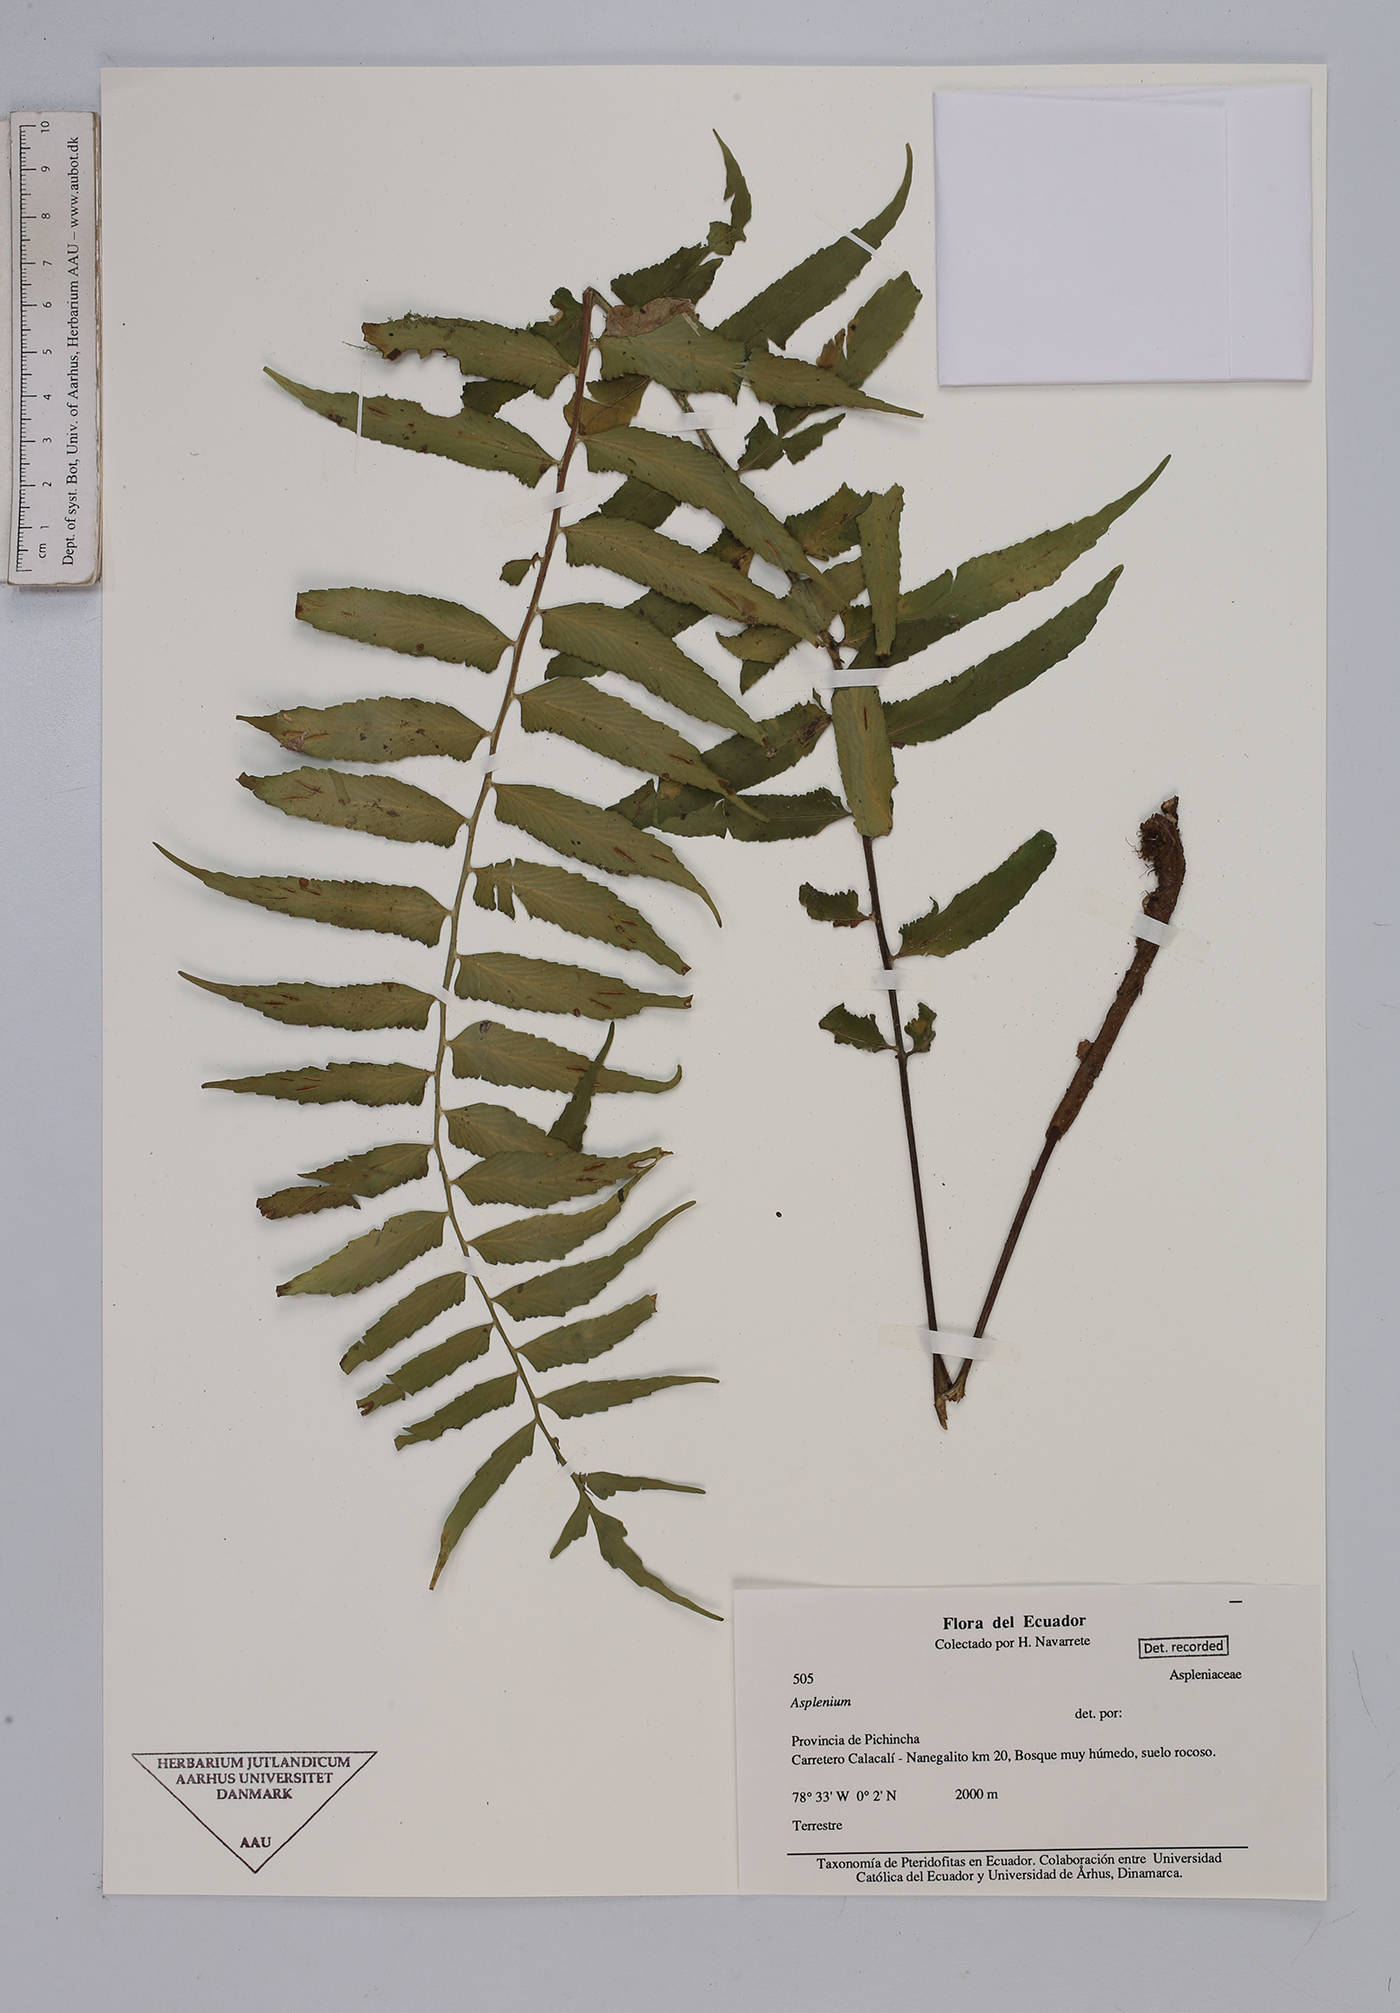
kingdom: Plantae
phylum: Tracheophyta
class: Polypodiopsida
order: Polypodiales
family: Aspleniaceae
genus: Asplenium
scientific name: Asplenium
